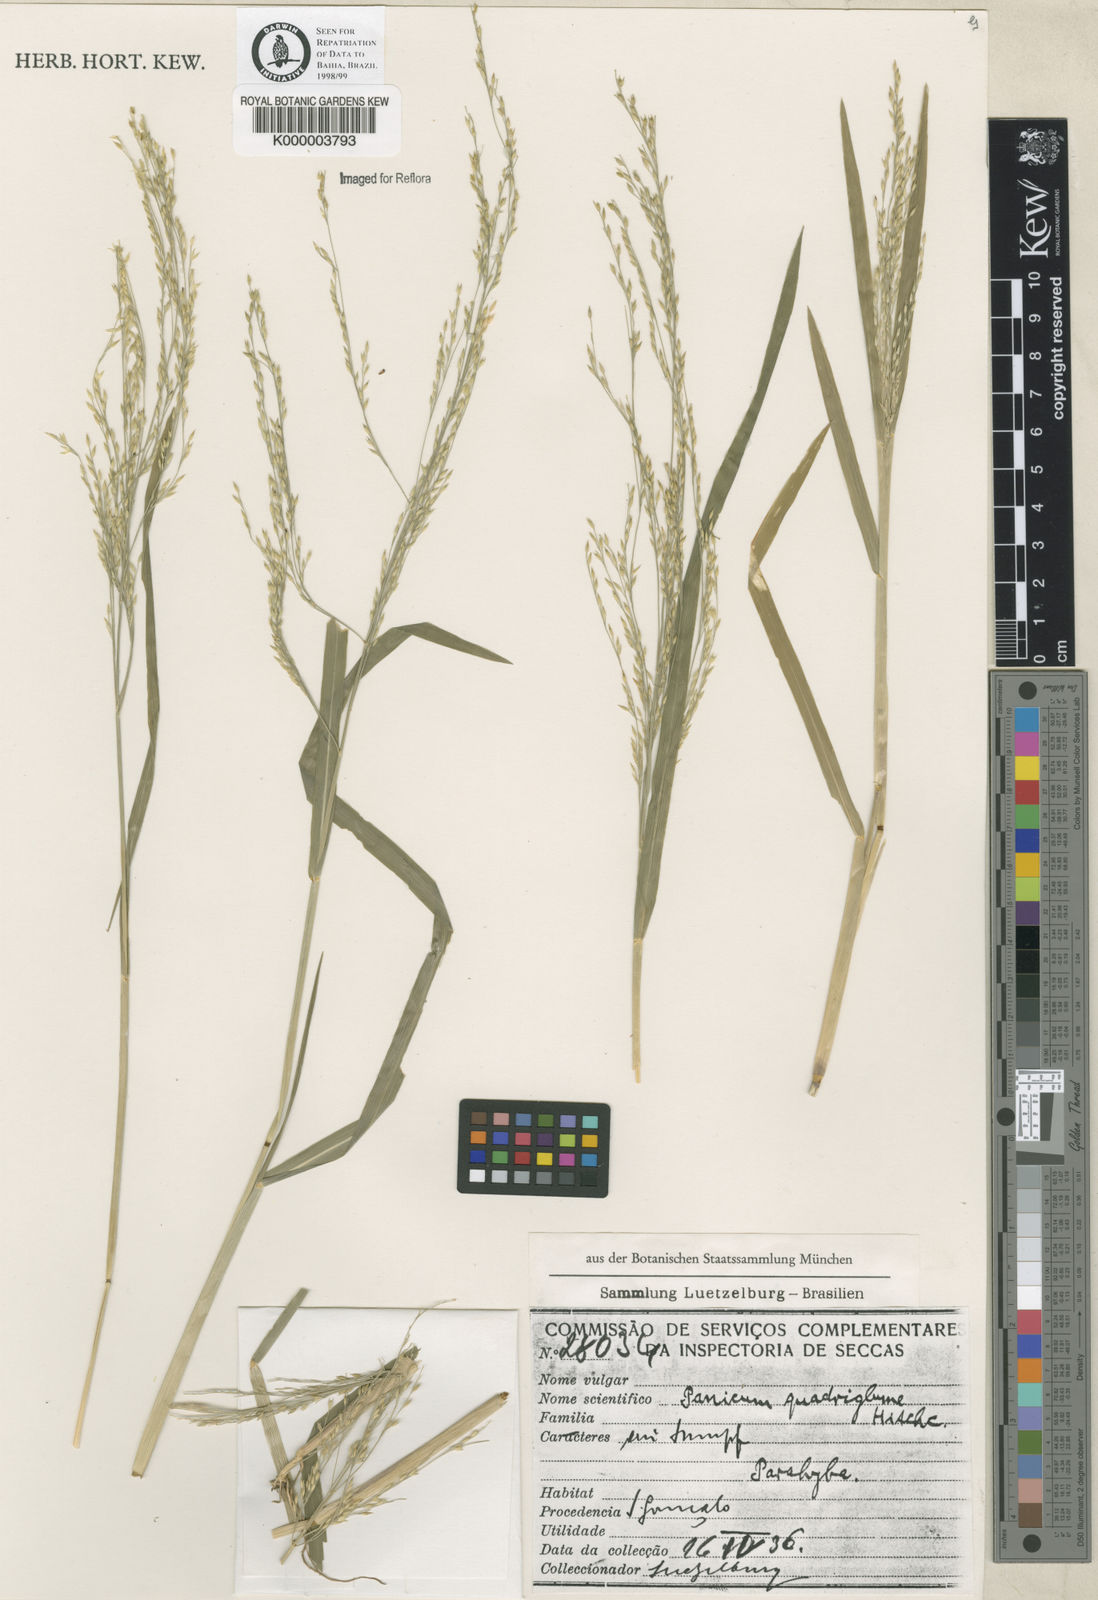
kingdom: Plantae
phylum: Tracheophyta
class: Liliopsida
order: Poales
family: Poaceae
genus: Panicum
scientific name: Panicum dichotomiflorum
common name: Autumn millet
